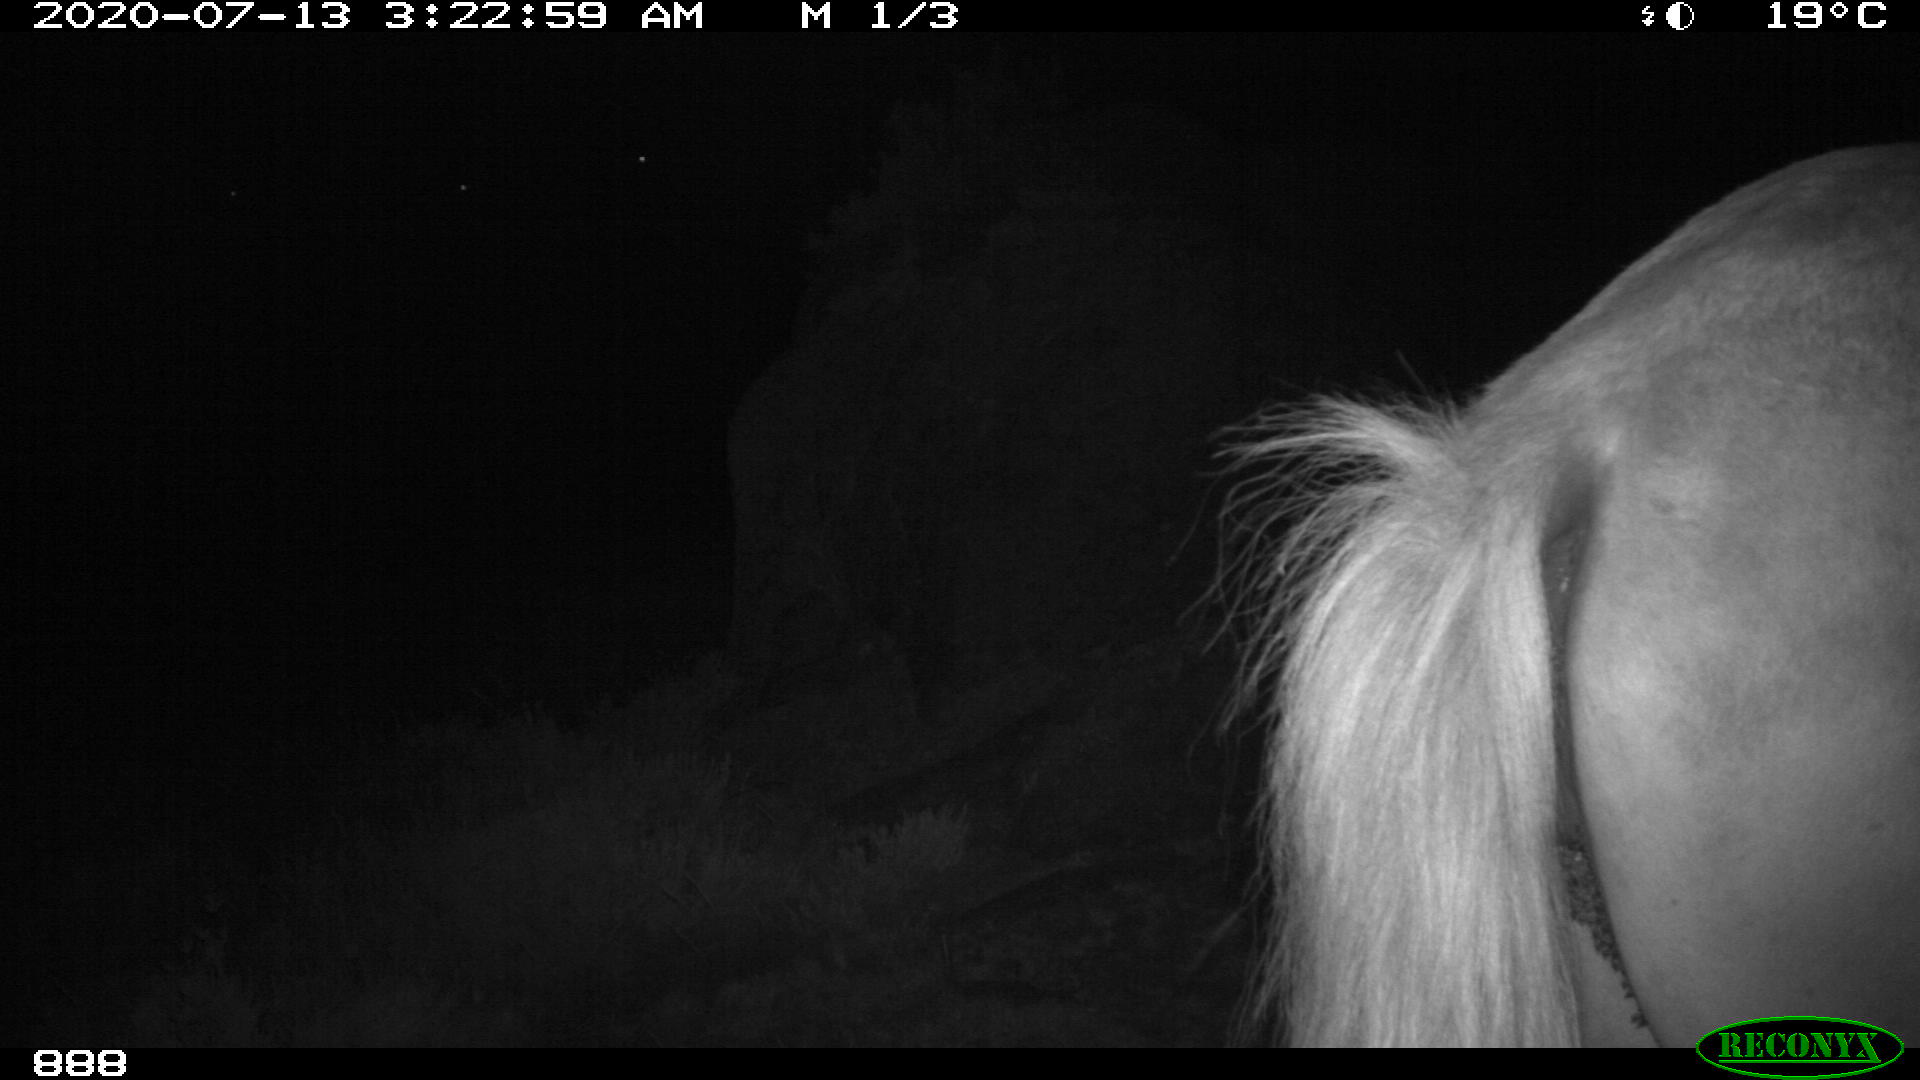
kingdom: Animalia
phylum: Chordata
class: Mammalia
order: Perissodactyla
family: Equidae
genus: Equus
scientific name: Equus caballus
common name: Horse
